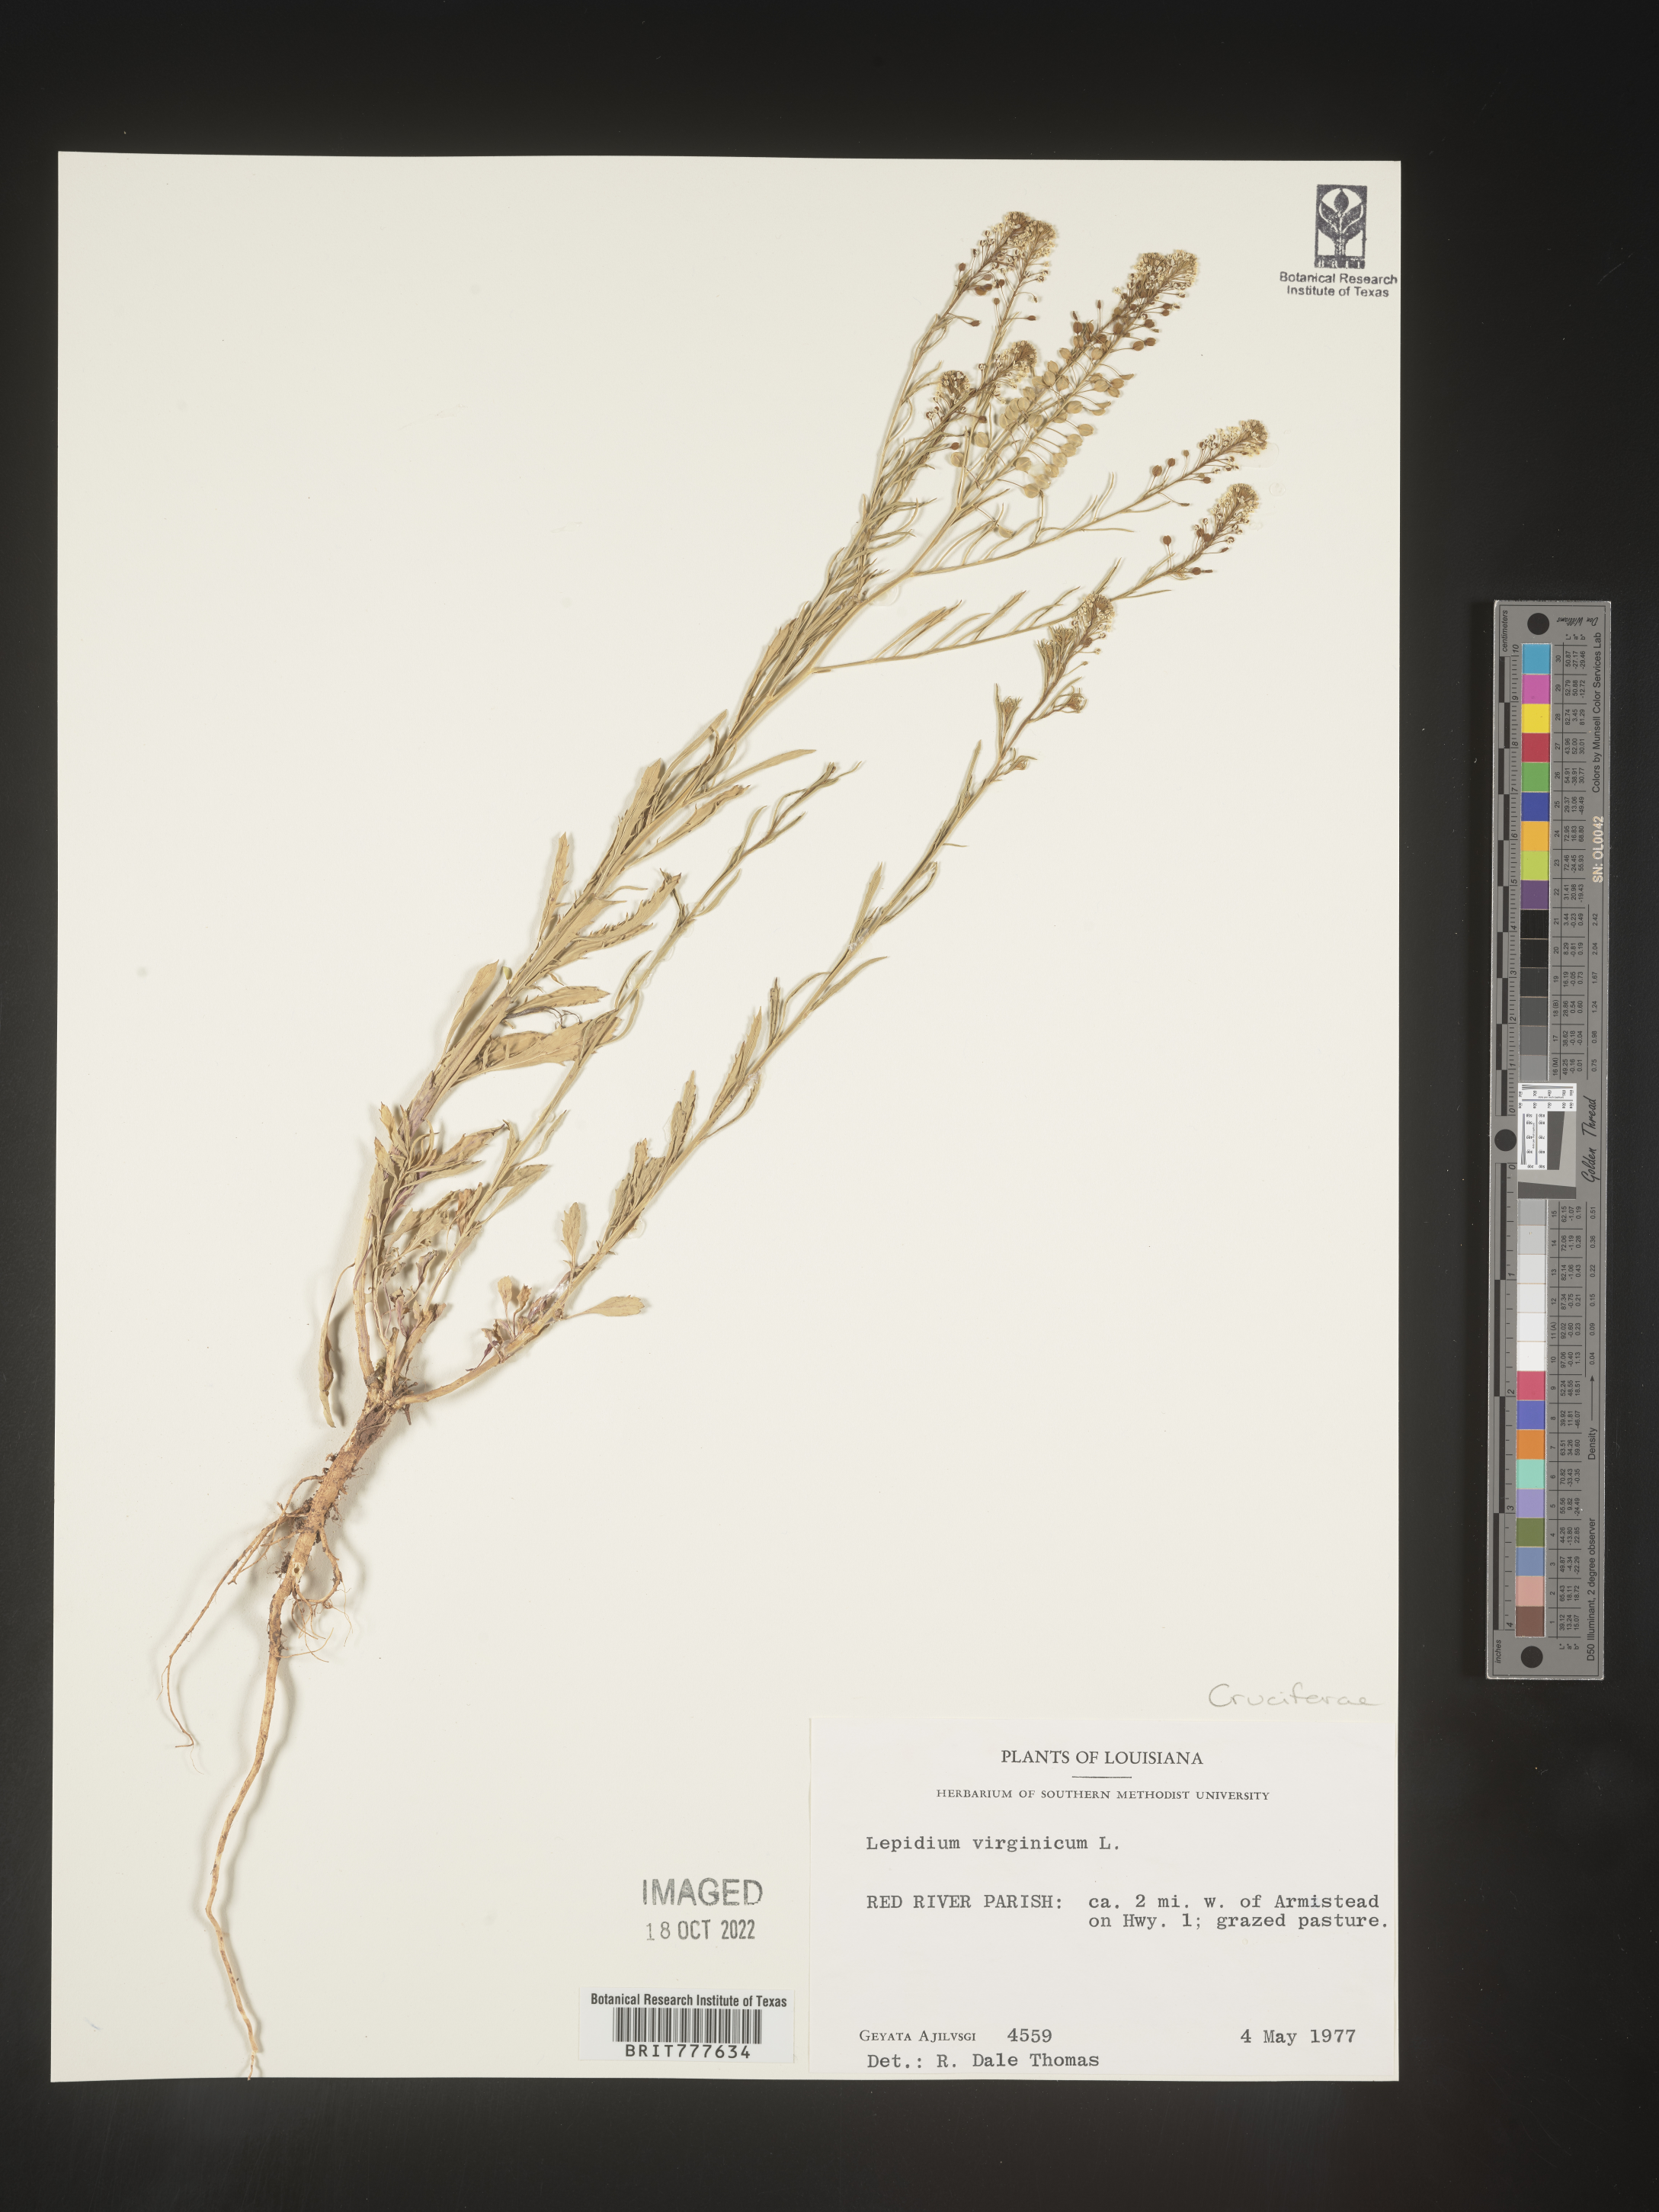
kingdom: Plantae
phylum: Tracheophyta
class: Magnoliopsida
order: Brassicales
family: Brassicaceae
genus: Lepidium
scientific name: Lepidium virginicum
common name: Least pepperwort
